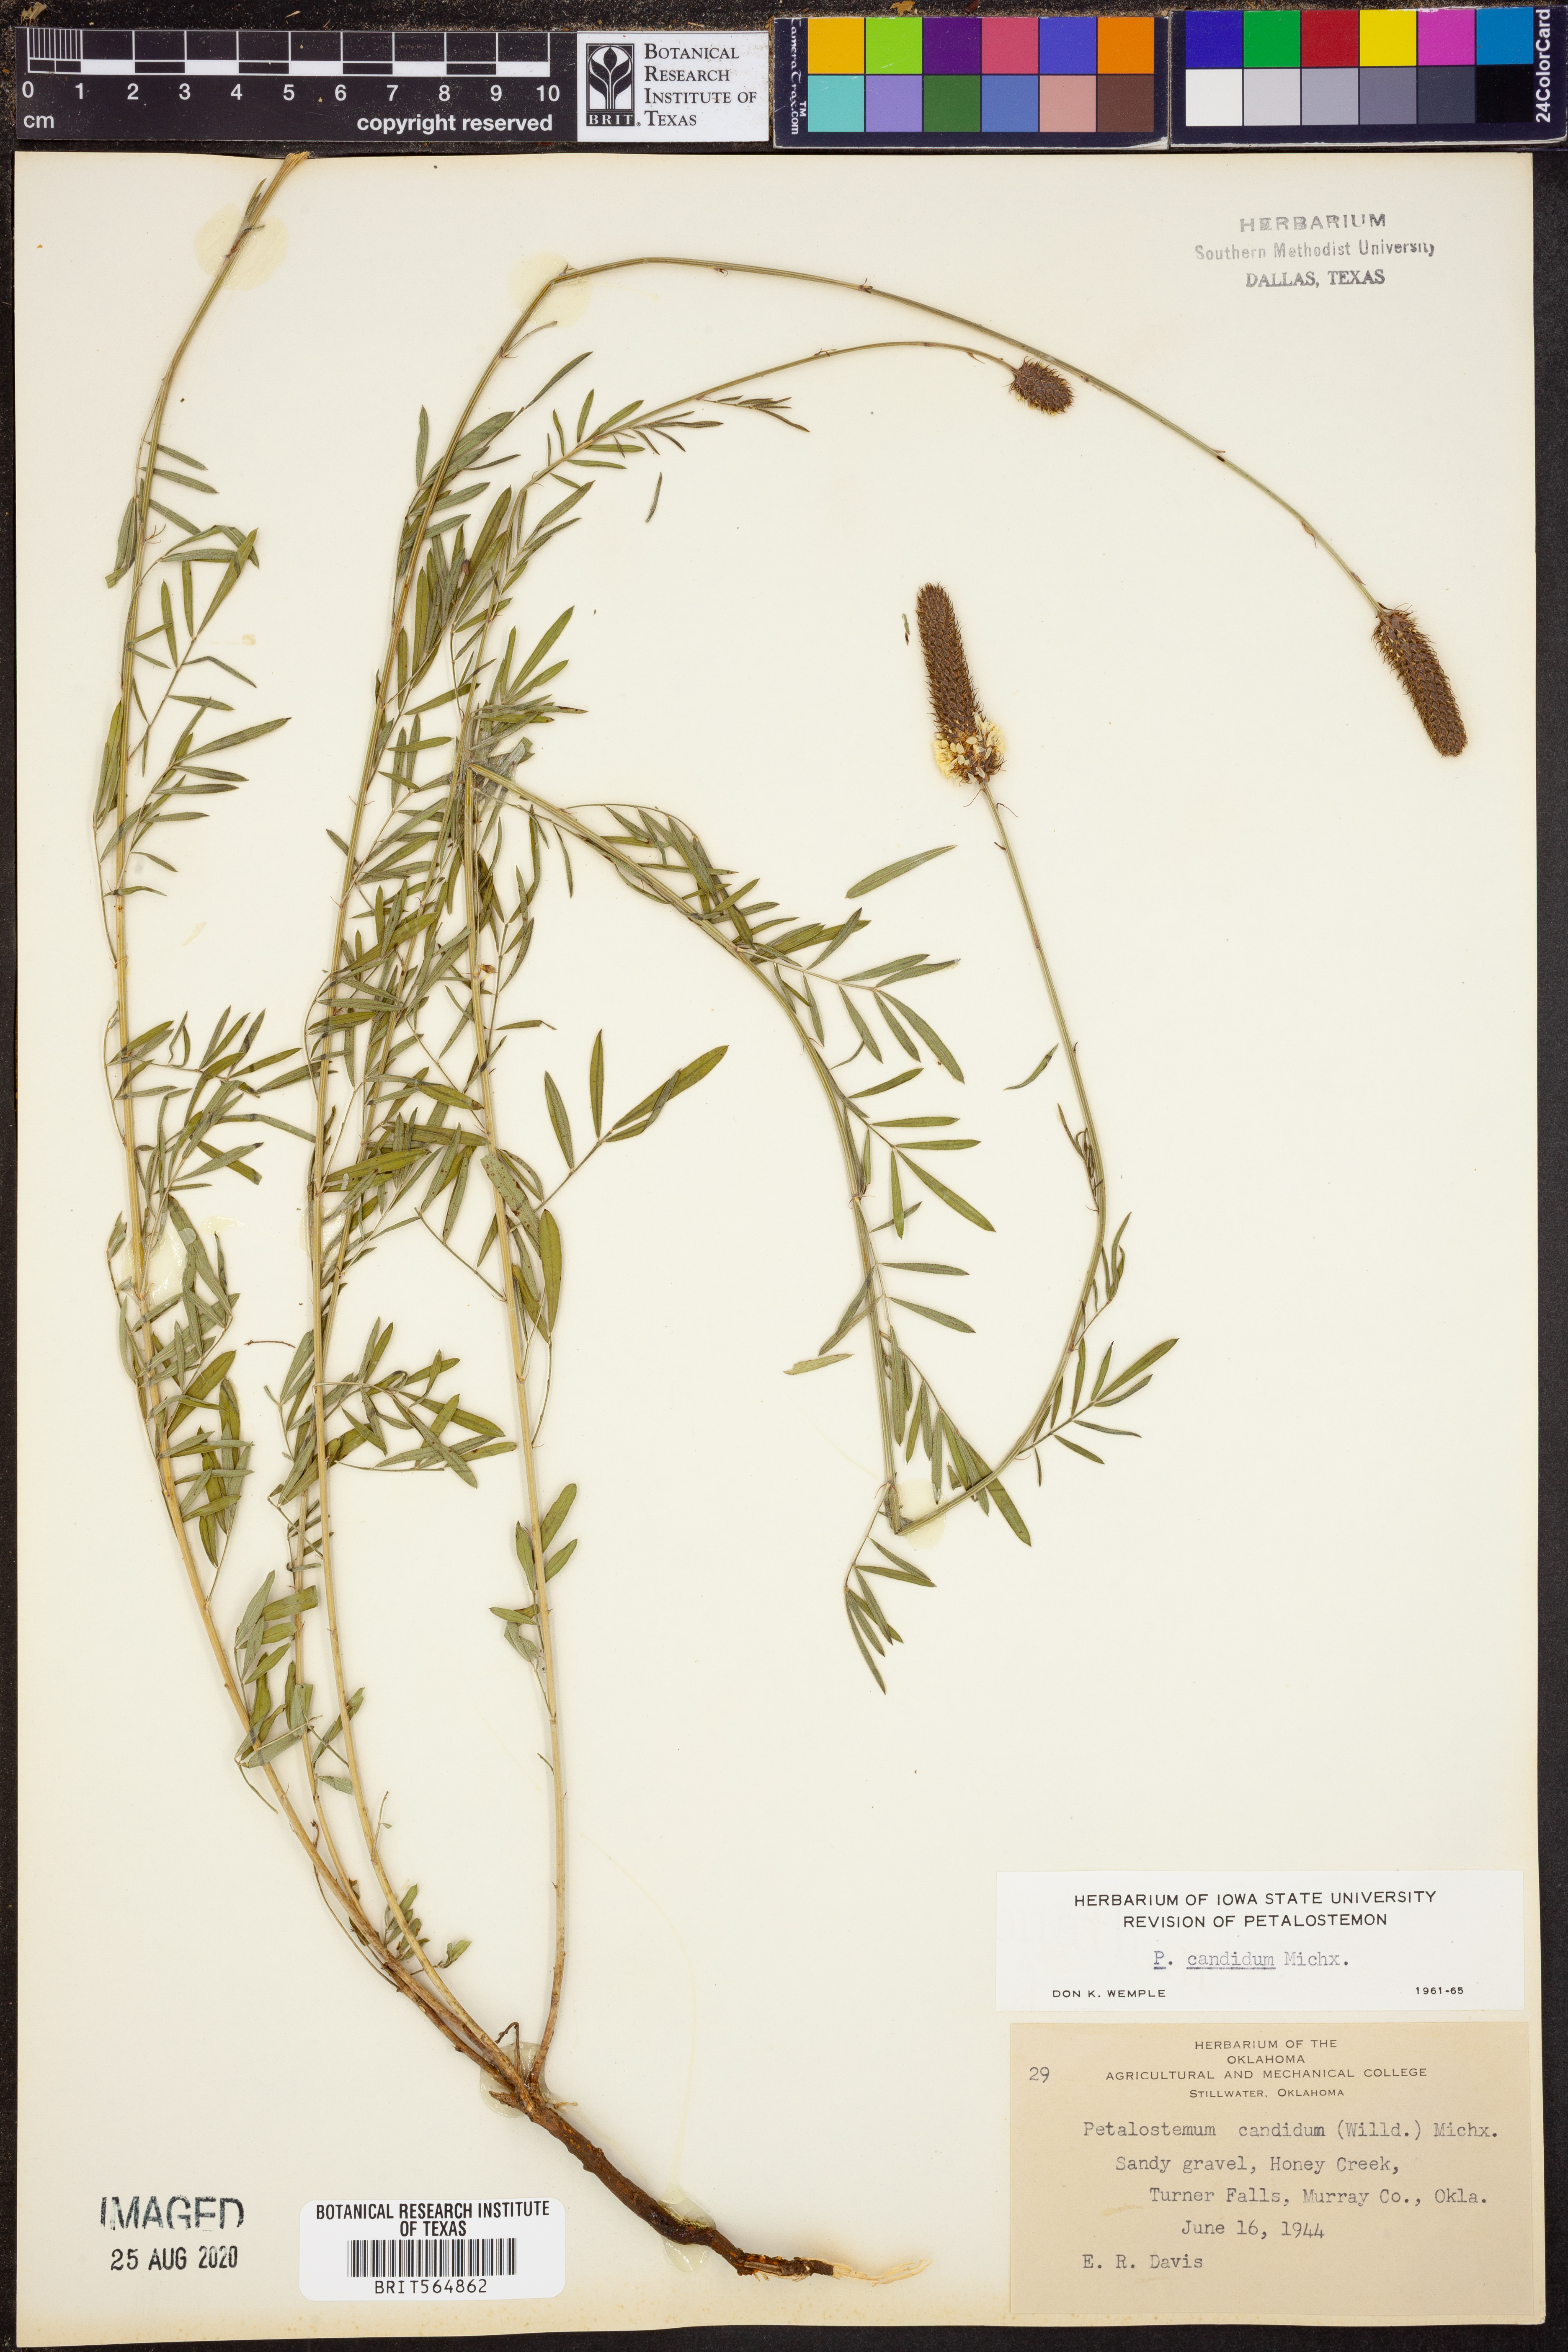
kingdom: Plantae
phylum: Tracheophyta
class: Magnoliopsida
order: Fabales
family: Fabaceae
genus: Dalea
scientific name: Dalea candida
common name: White prairie-clover
